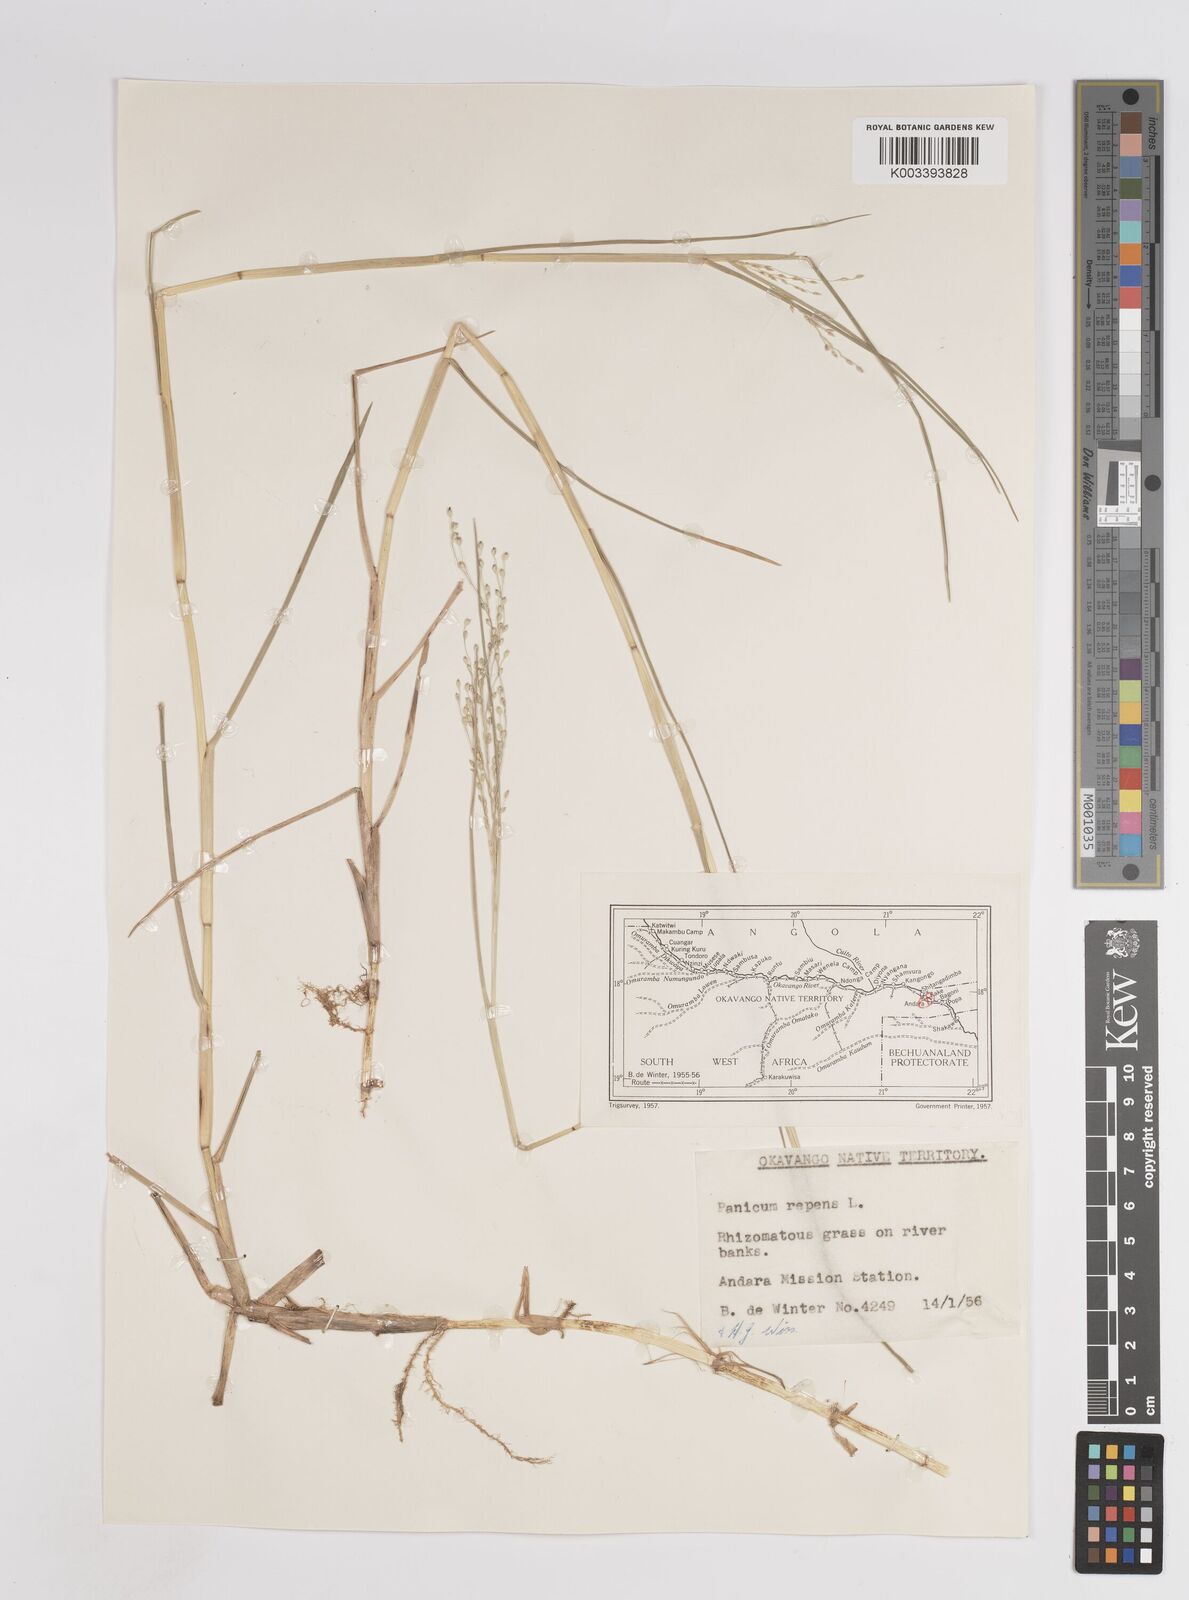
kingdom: Plantae
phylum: Tracheophyta
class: Liliopsida
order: Poales
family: Poaceae
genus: Panicum
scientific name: Panicum repens
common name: Torpedo grass
